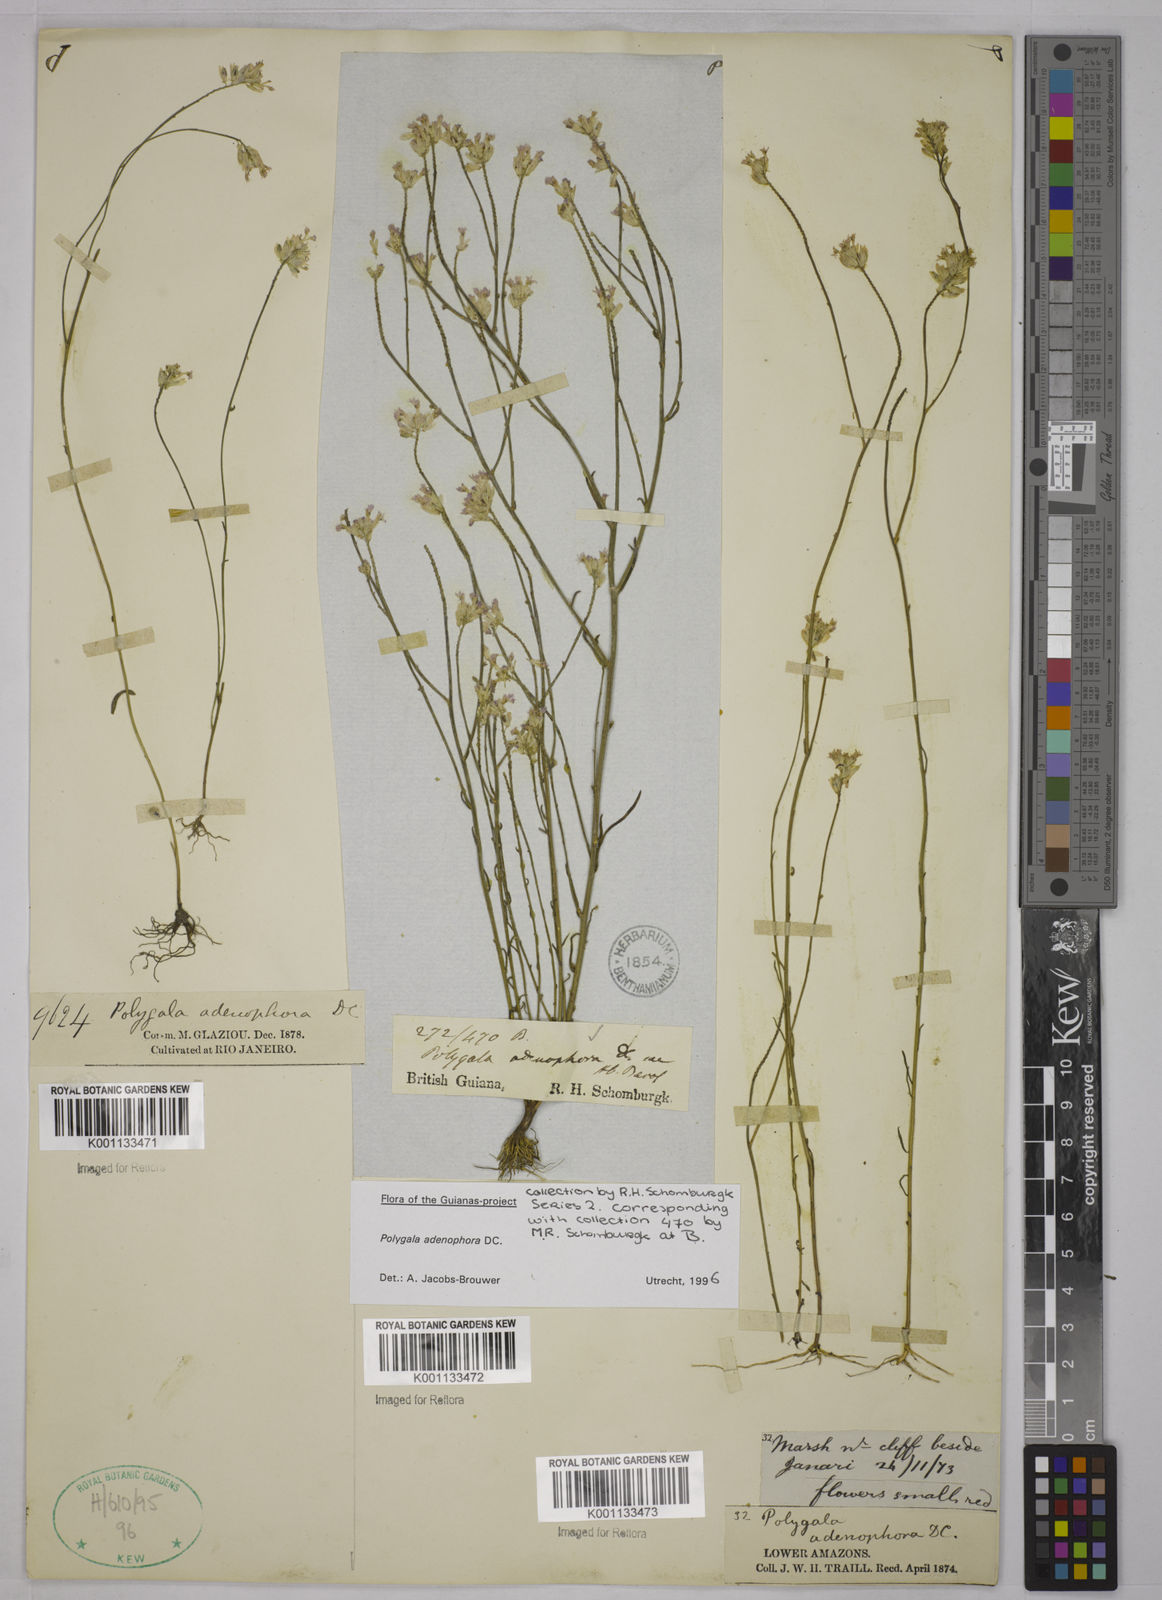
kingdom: Plantae
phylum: Tracheophyta
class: Magnoliopsida
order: Fabales
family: Polygalaceae
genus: Polygala
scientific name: Polygala adenophora
